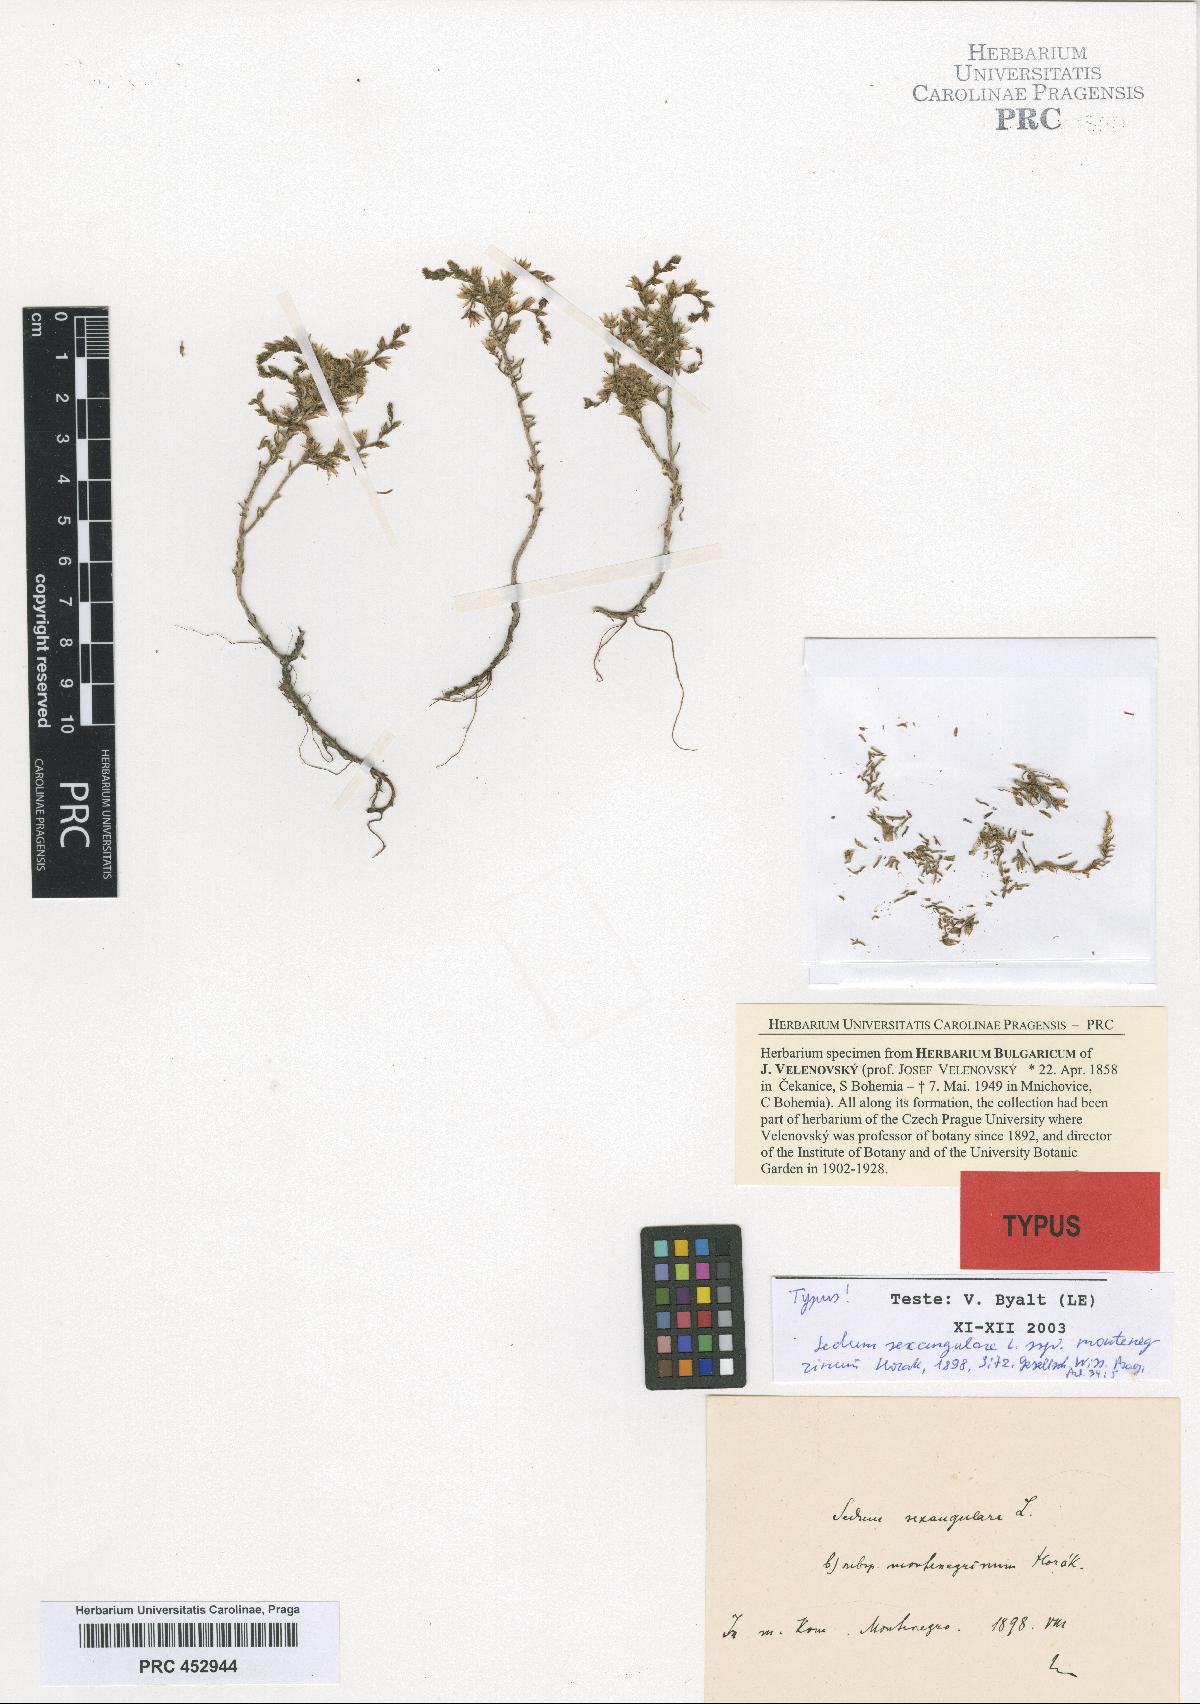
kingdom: Plantae
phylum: Tracheophyta
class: Magnoliopsida
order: Saxifragales
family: Crassulaceae
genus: Sedum
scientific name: Sedum sexangulare
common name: Tasteless stonecrop
